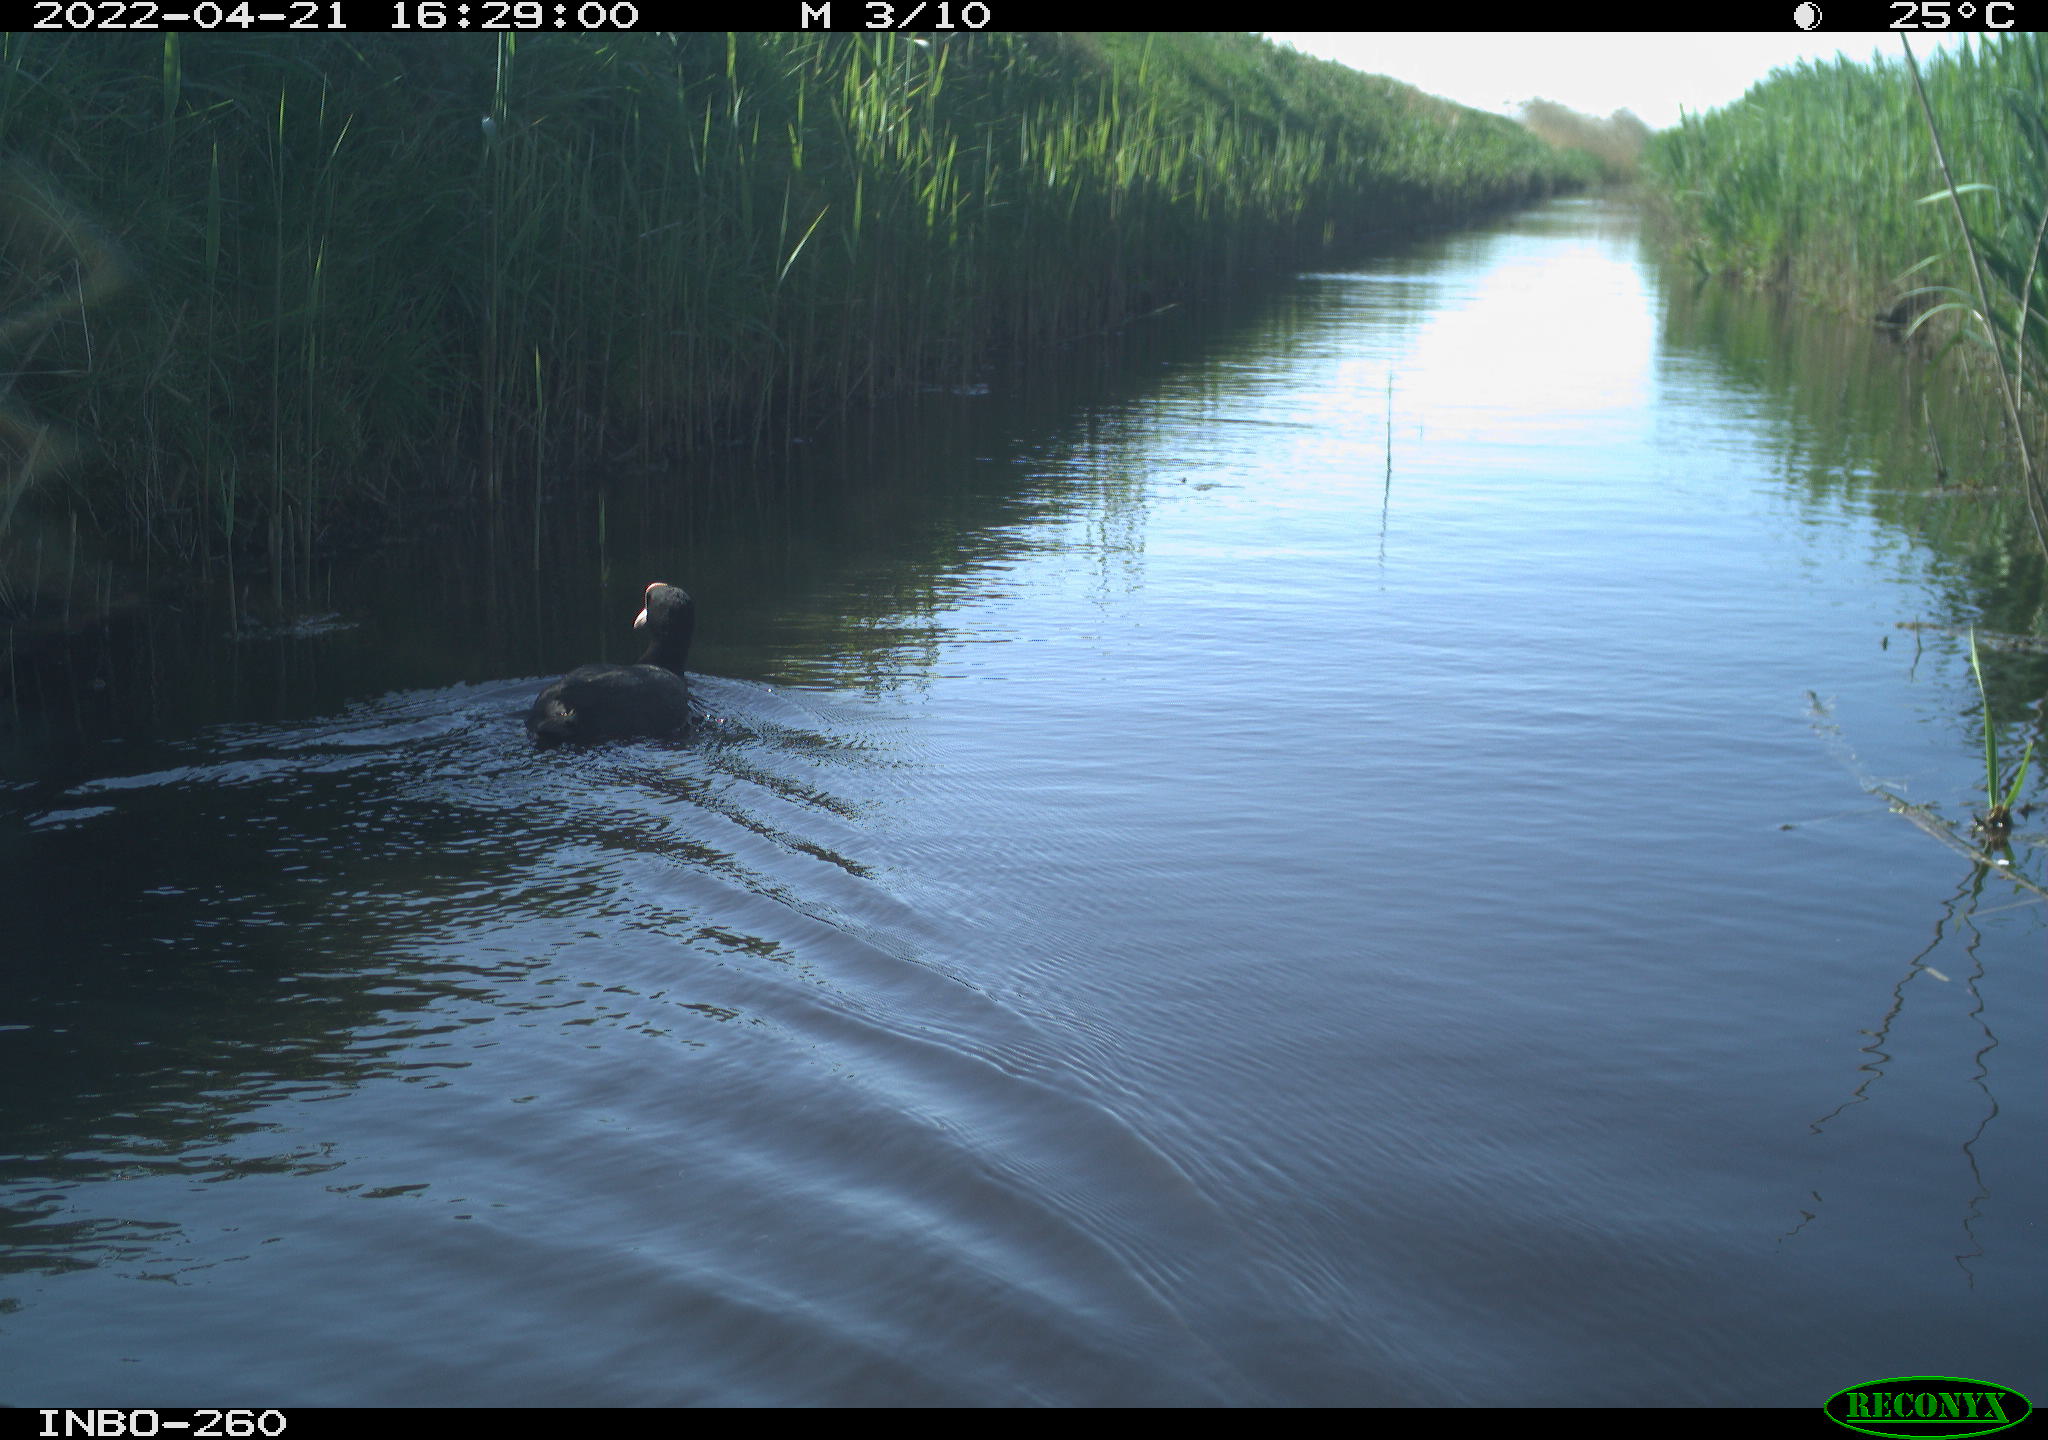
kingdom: Animalia
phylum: Chordata
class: Aves
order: Gruiformes
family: Rallidae
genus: Fulica
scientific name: Fulica atra
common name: Eurasian coot
